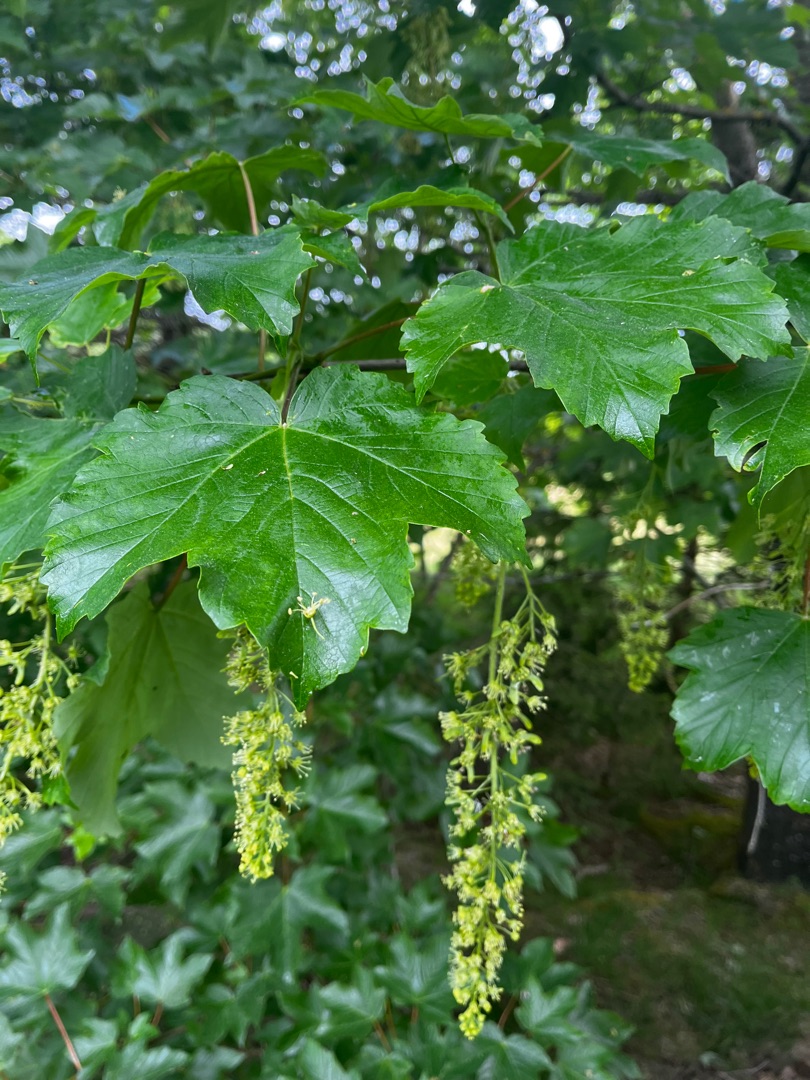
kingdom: Plantae
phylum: Tracheophyta
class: Magnoliopsida
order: Sapindales
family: Sapindaceae
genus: Acer
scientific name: Acer pseudoplatanus
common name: Ahorn
